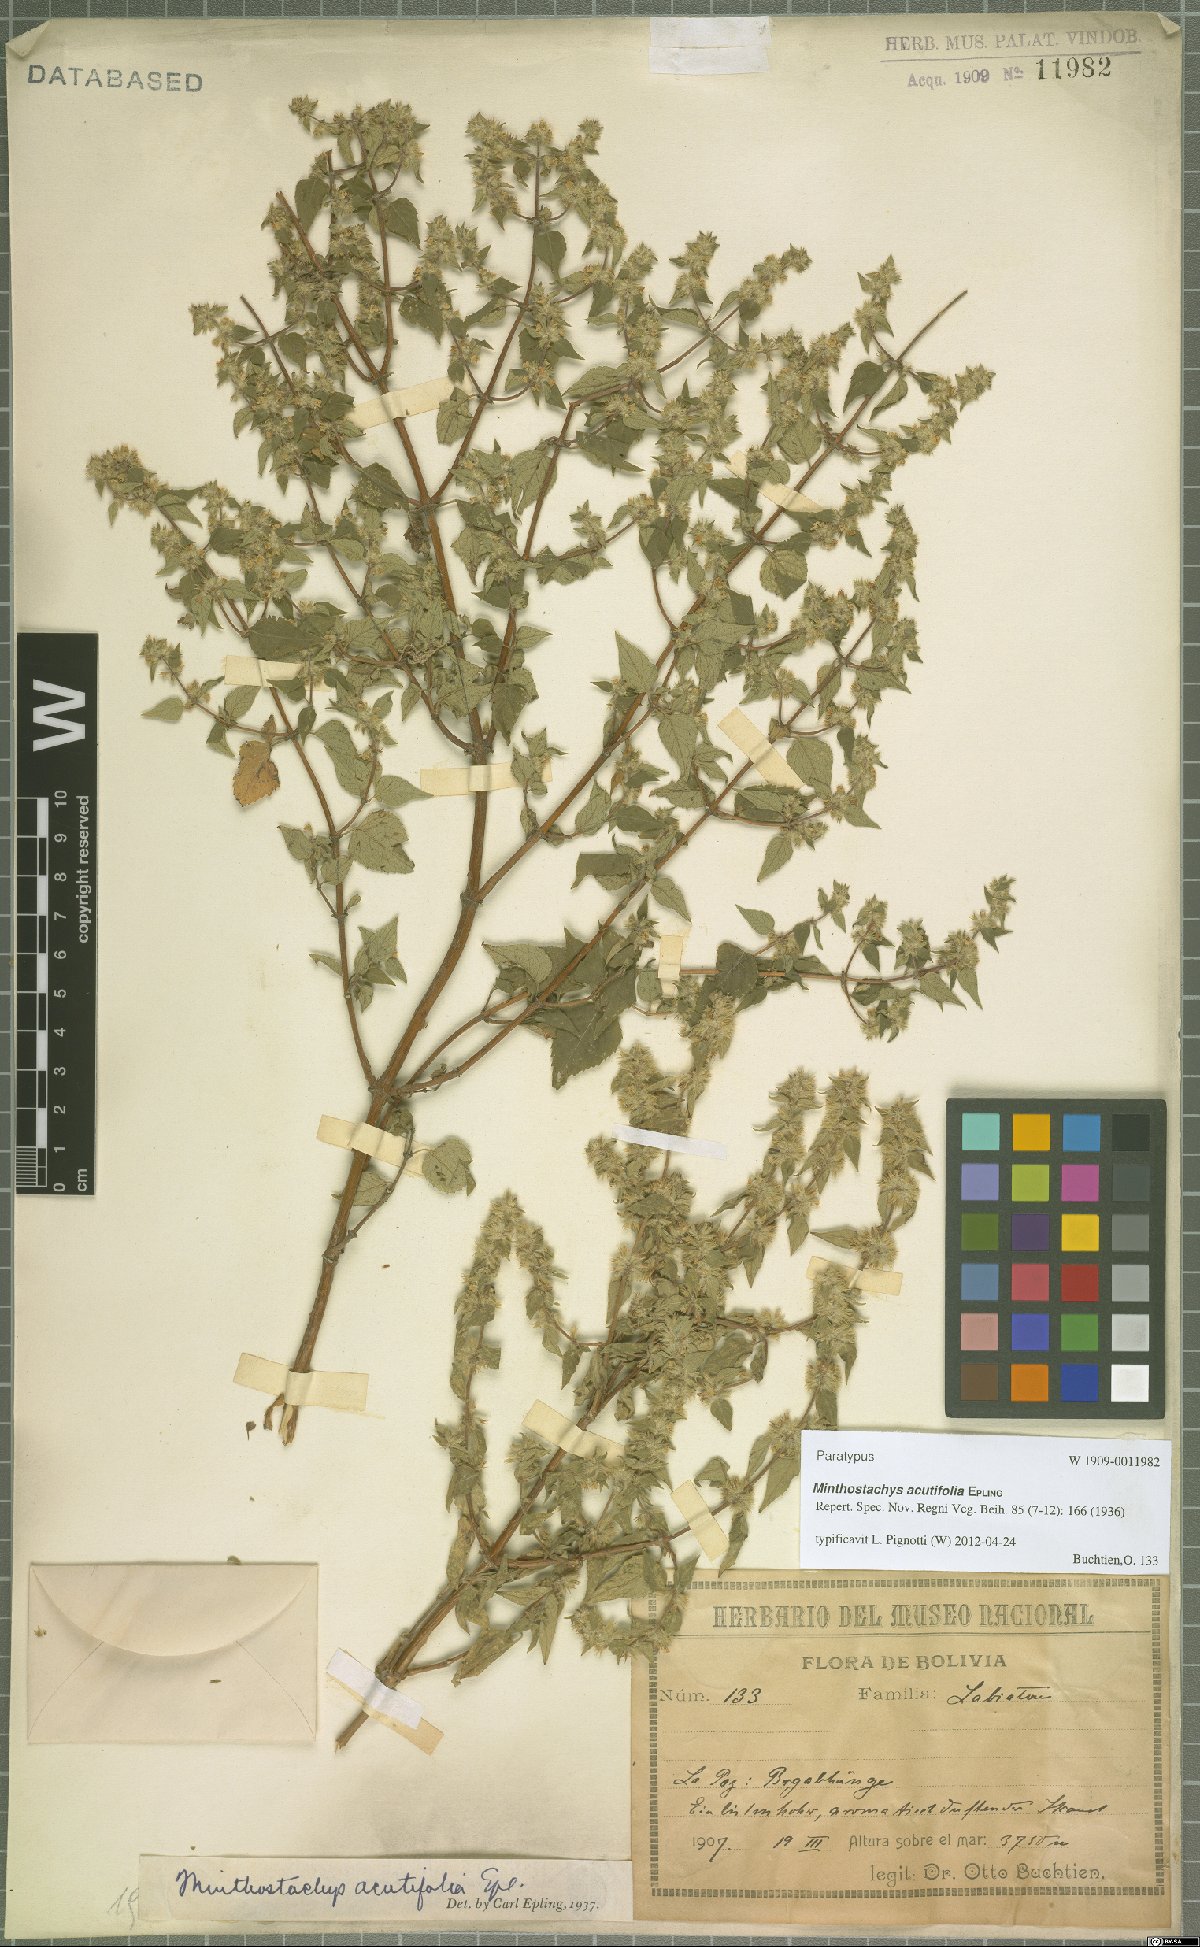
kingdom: Plantae
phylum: Tracheophyta
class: Magnoliopsida
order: Lamiales
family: Lamiaceae
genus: Minthostachys
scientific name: Minthostachys acutifolia
